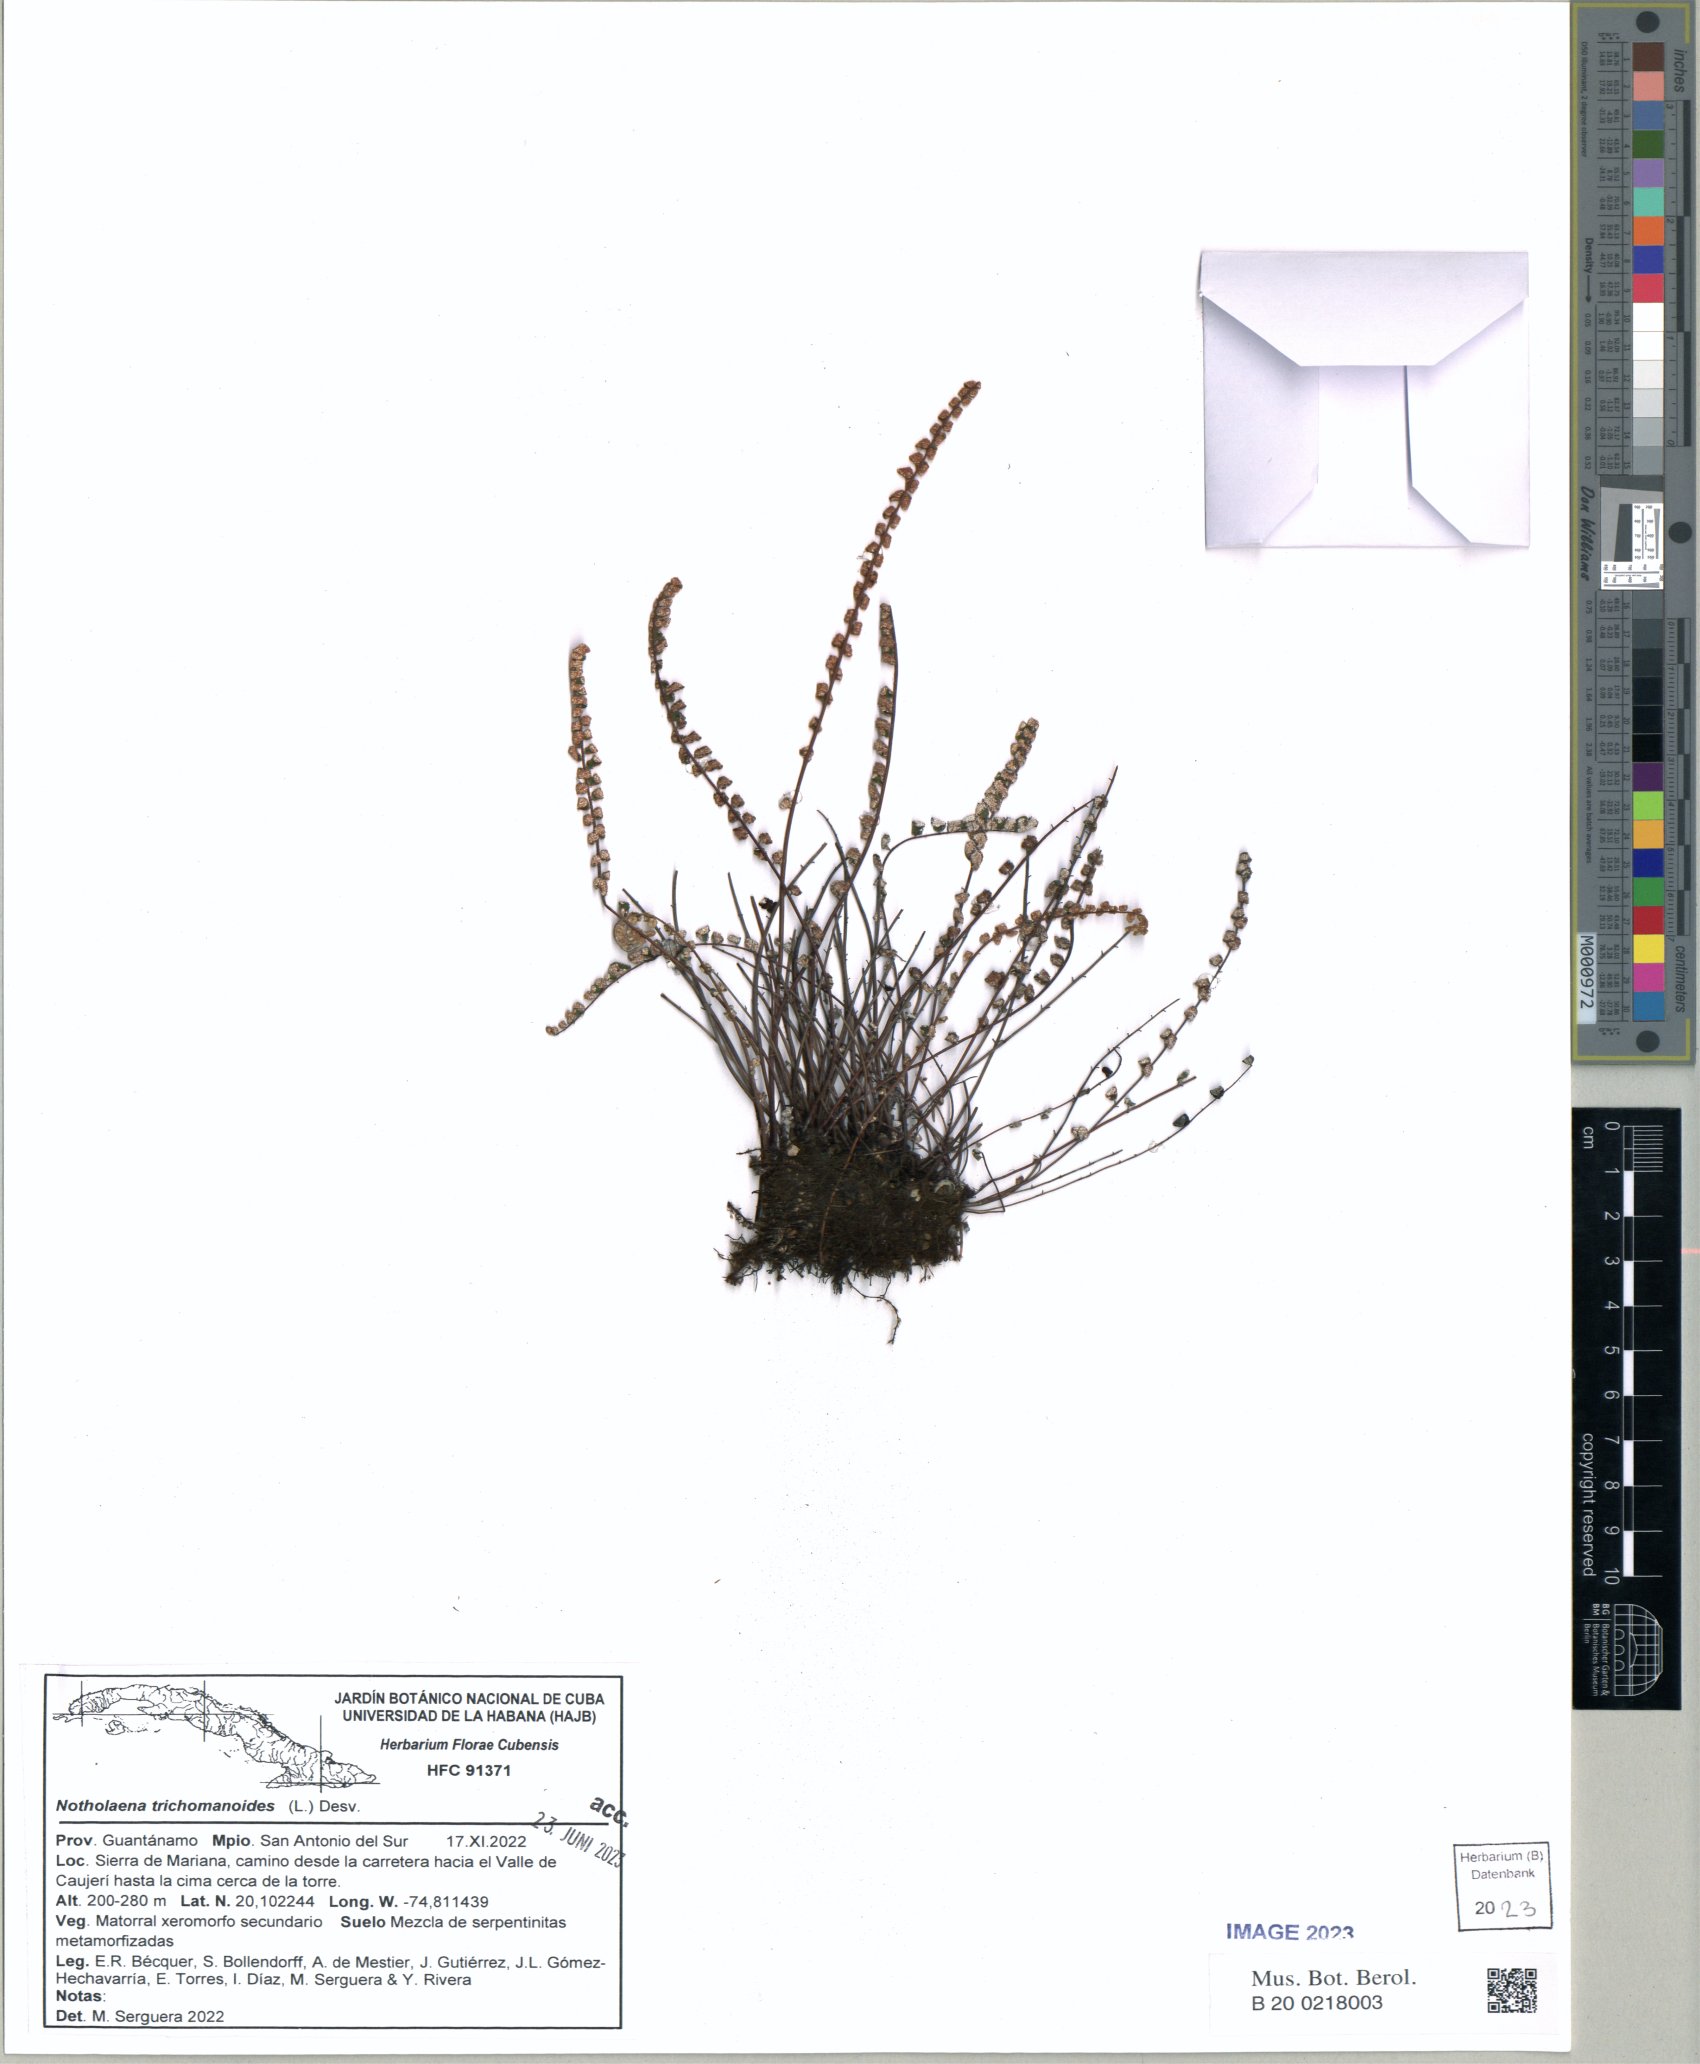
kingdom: Plantae
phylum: Tracheophyta
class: Polypodiopsida
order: Polypodiales
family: Pteridaceae
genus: Notholaena
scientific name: Notholaena trichomanoides
